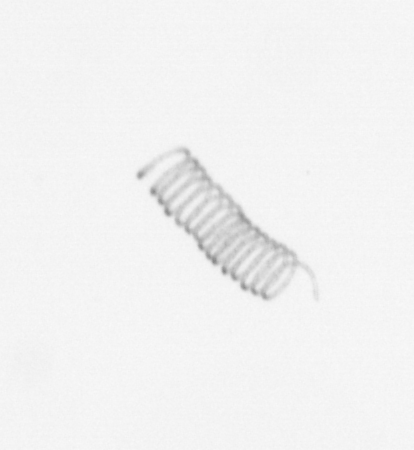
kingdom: Chromista
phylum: Ochrophyta
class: Bacillariophyceae
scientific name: Bacillariophyceae
